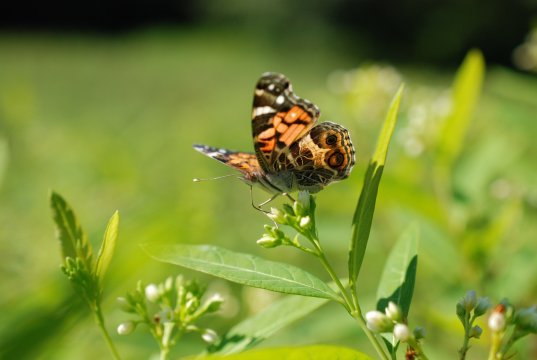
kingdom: Animalia
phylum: Arthropoda
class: Insecta
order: Lepidoptera
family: Nymphalidae
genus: Vanessa
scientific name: Vanessa virginiensis
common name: American Lady
